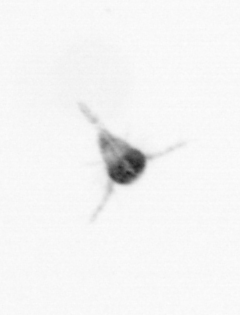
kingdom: Animalia
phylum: Arthropoda
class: Copepoda
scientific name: Copepoda
